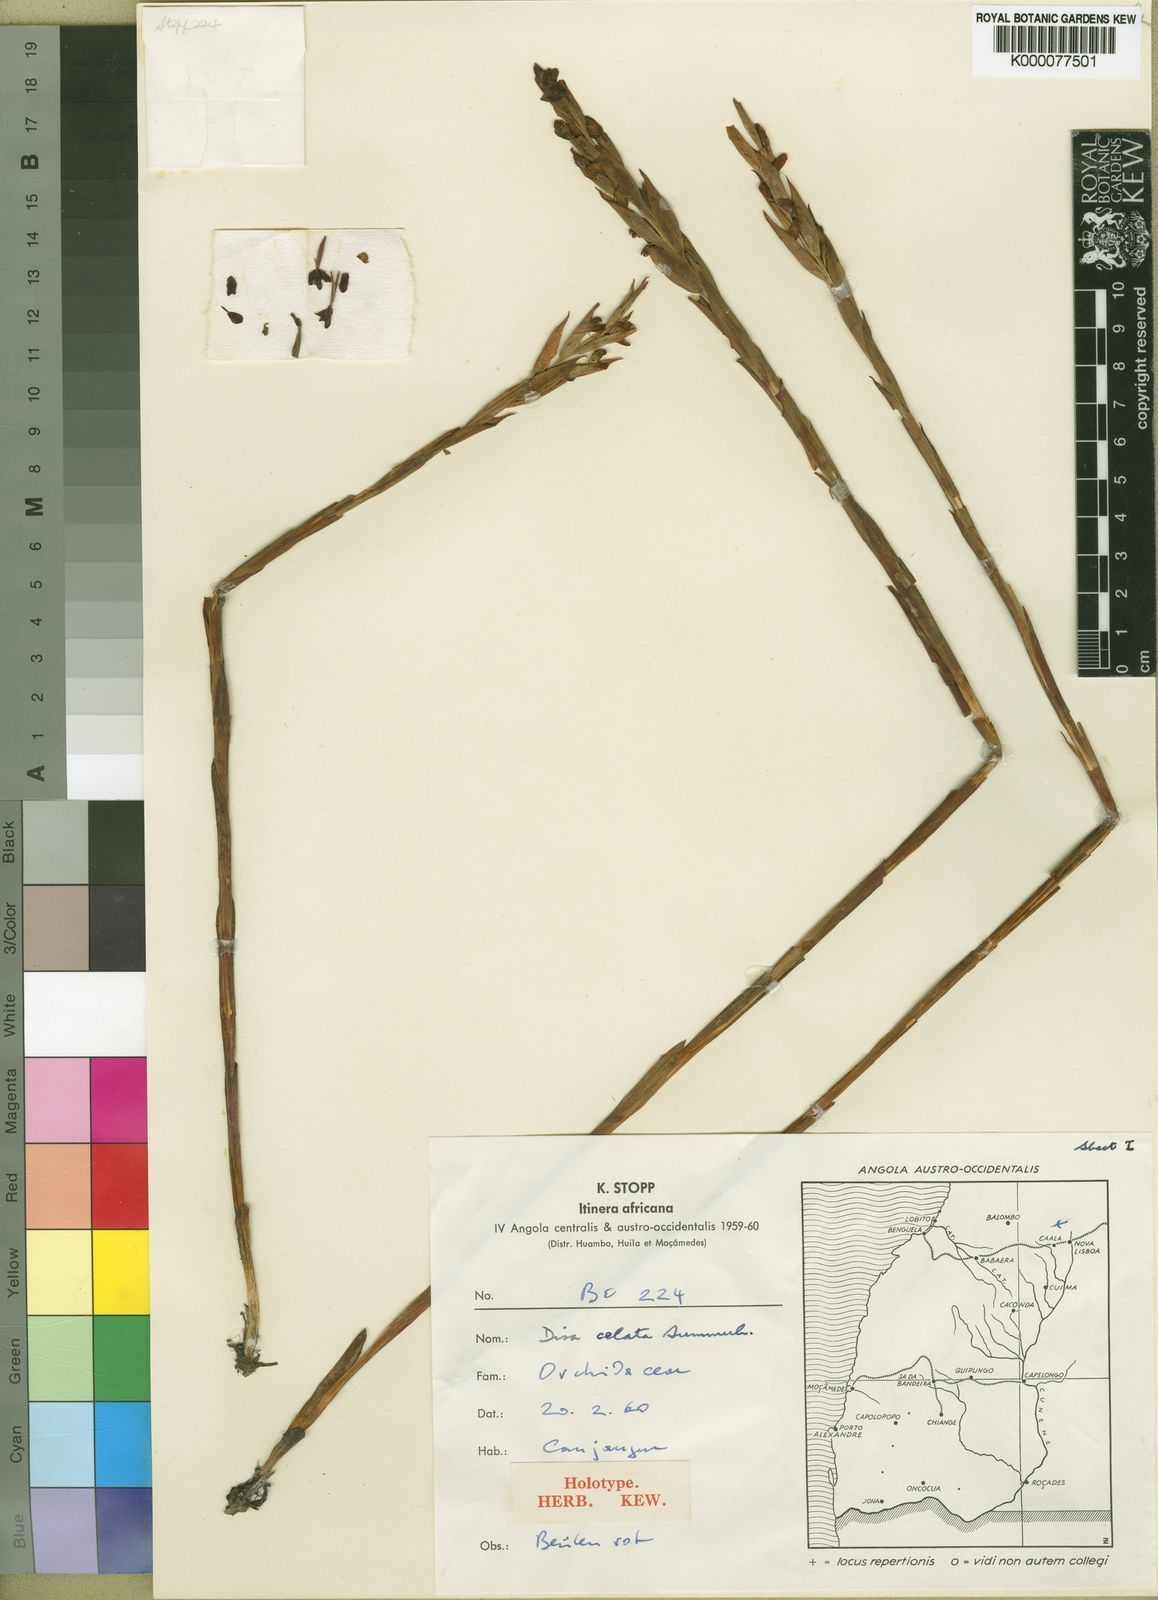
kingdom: Plantae
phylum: Tracheophyta
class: Liliopsida
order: Asparagales
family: Orchidaceae
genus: Disa
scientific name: Disa celata
